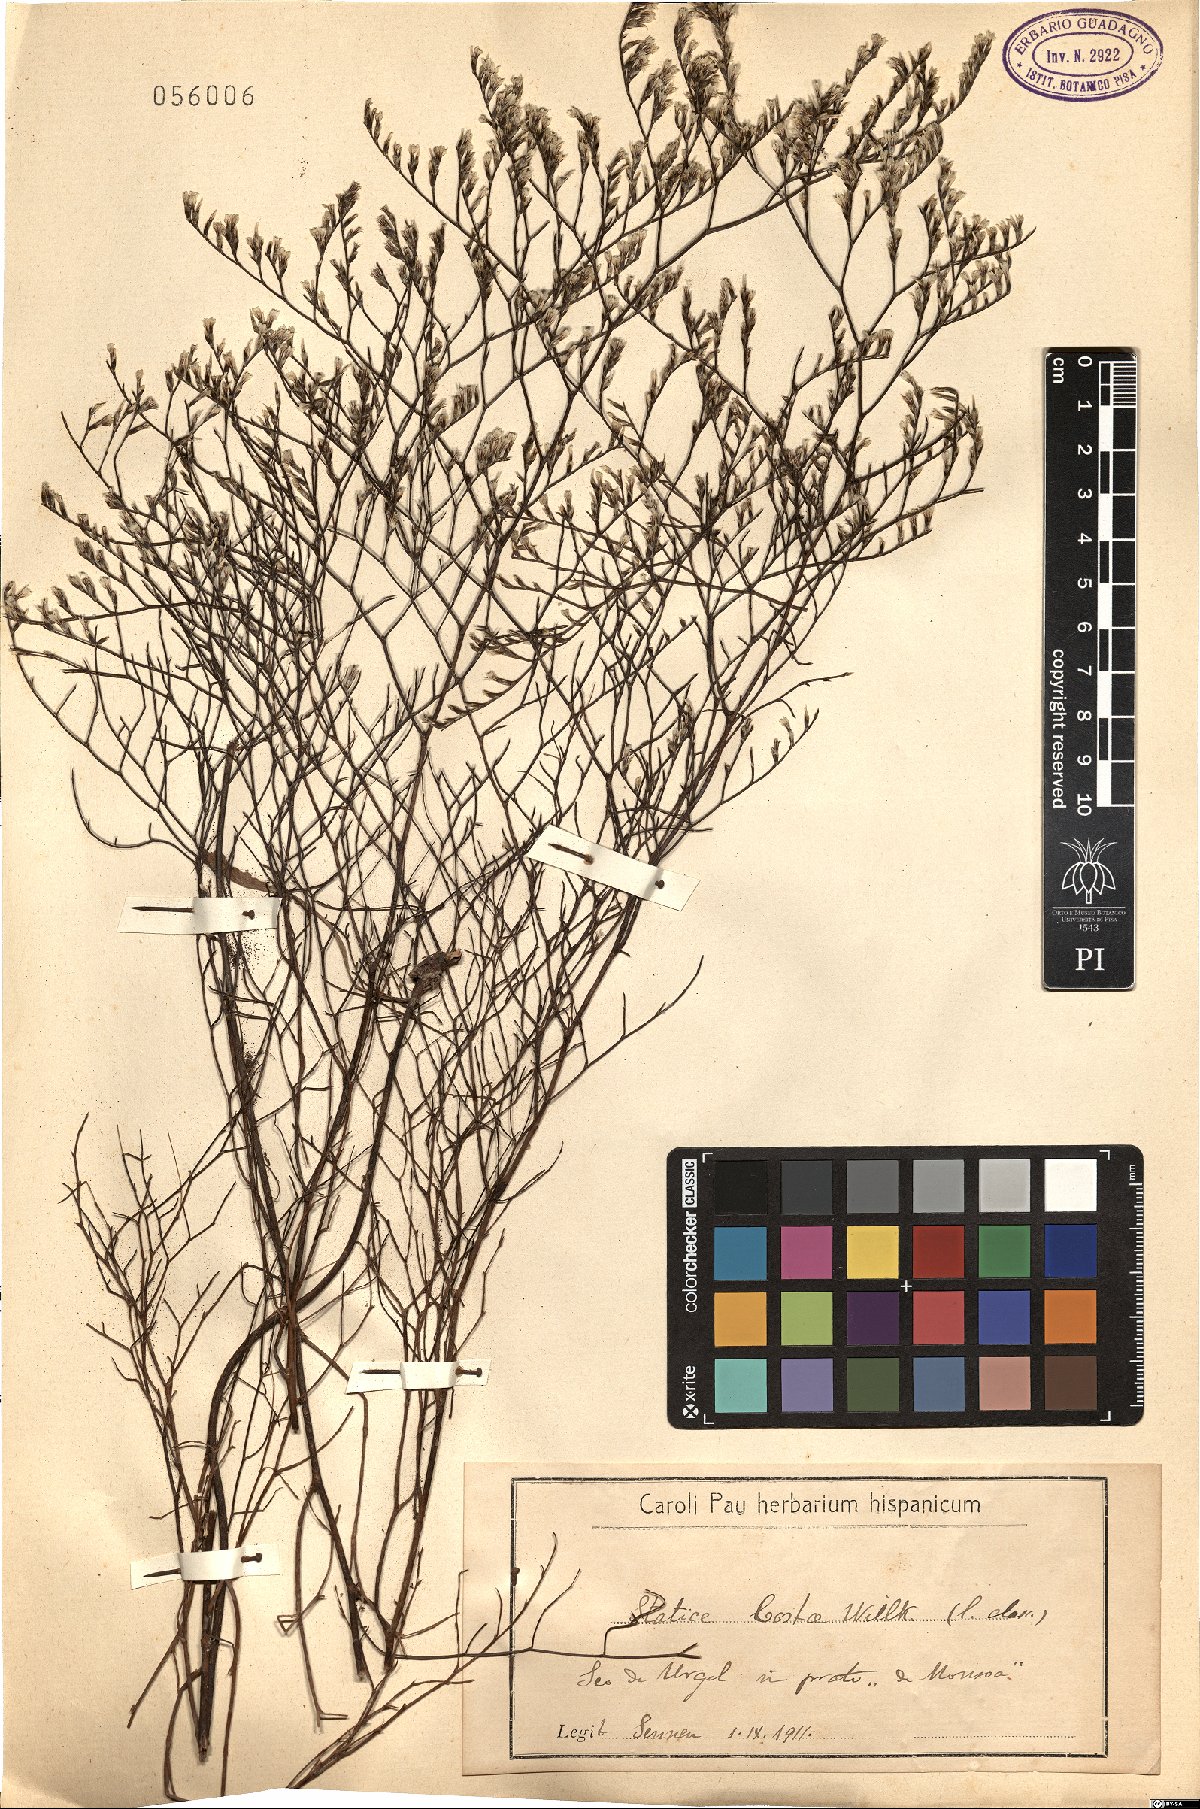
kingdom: Plantae
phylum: Tracheophyta
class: Magnoliopsida
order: Caryophyllales
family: Plumbaginaceae
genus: Limonium
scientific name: Limonium costae
